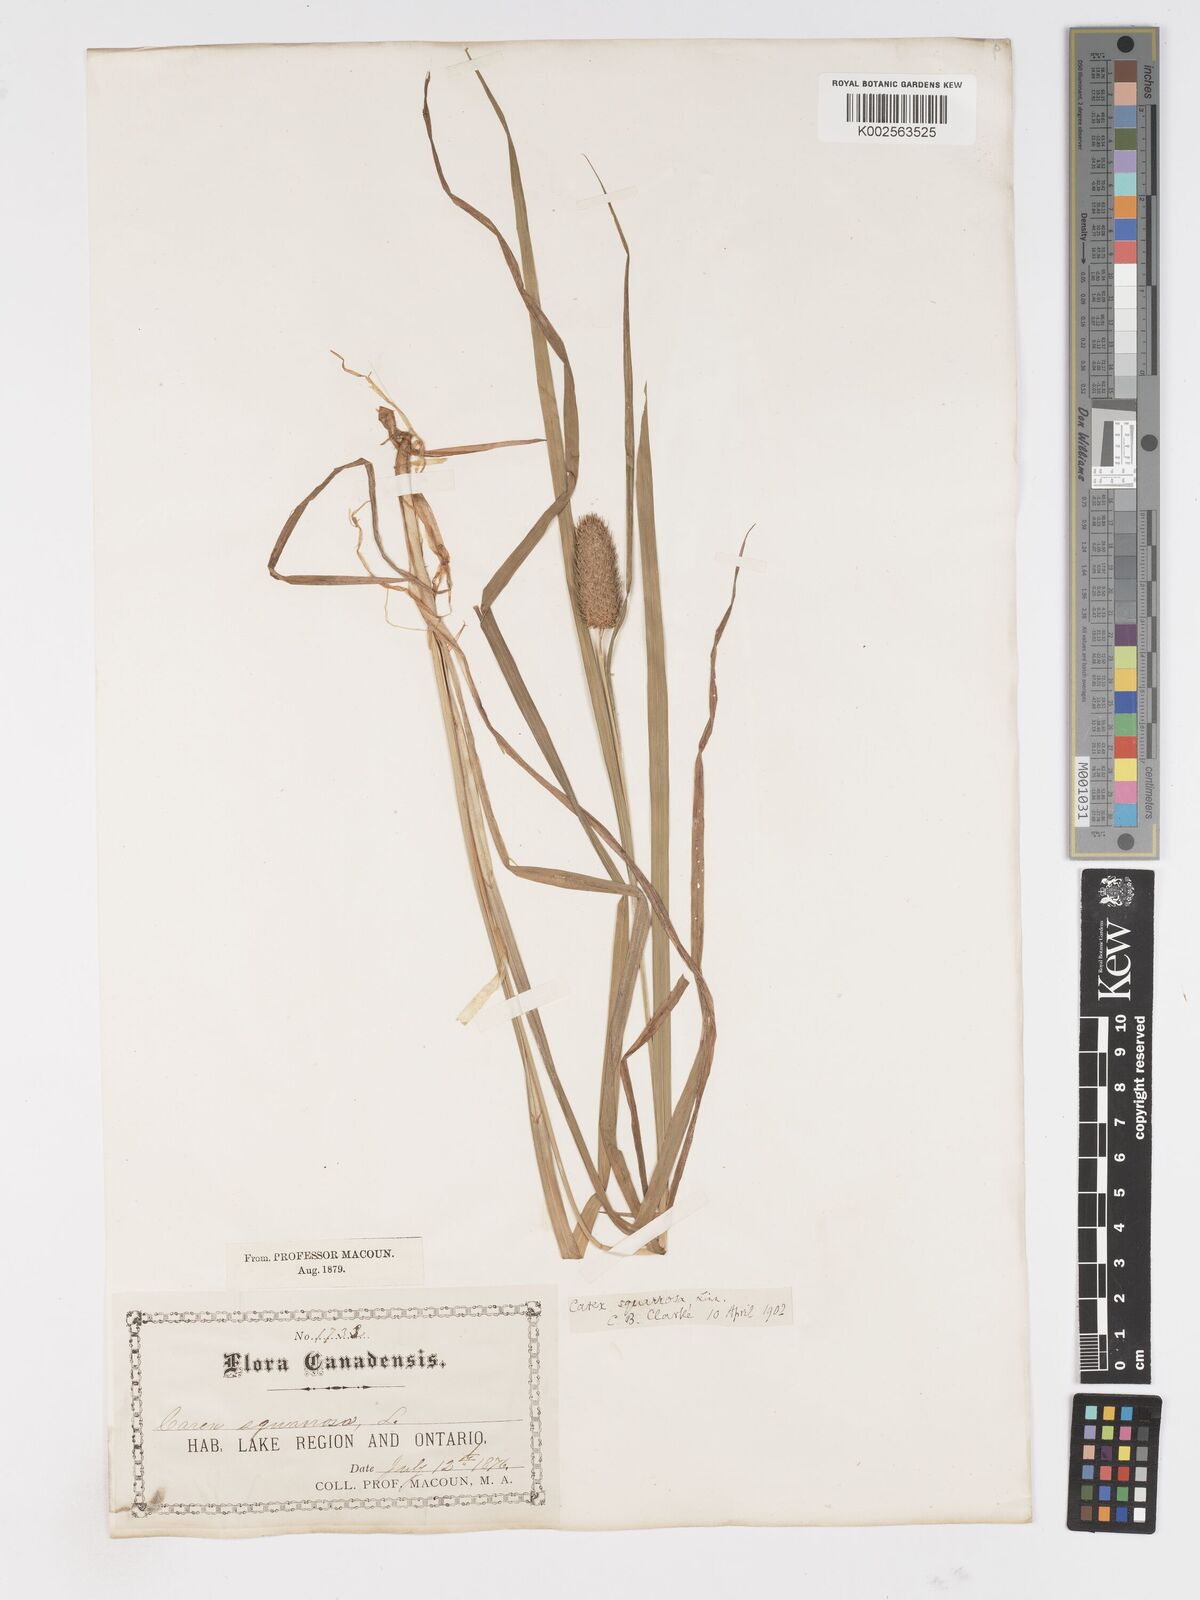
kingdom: Plantae
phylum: Tracheophyta
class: Liliopsida
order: Poales
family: Cyperaceae
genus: Carex
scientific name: Carex squarrosa
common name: Narrow-leaved cattail sedge
